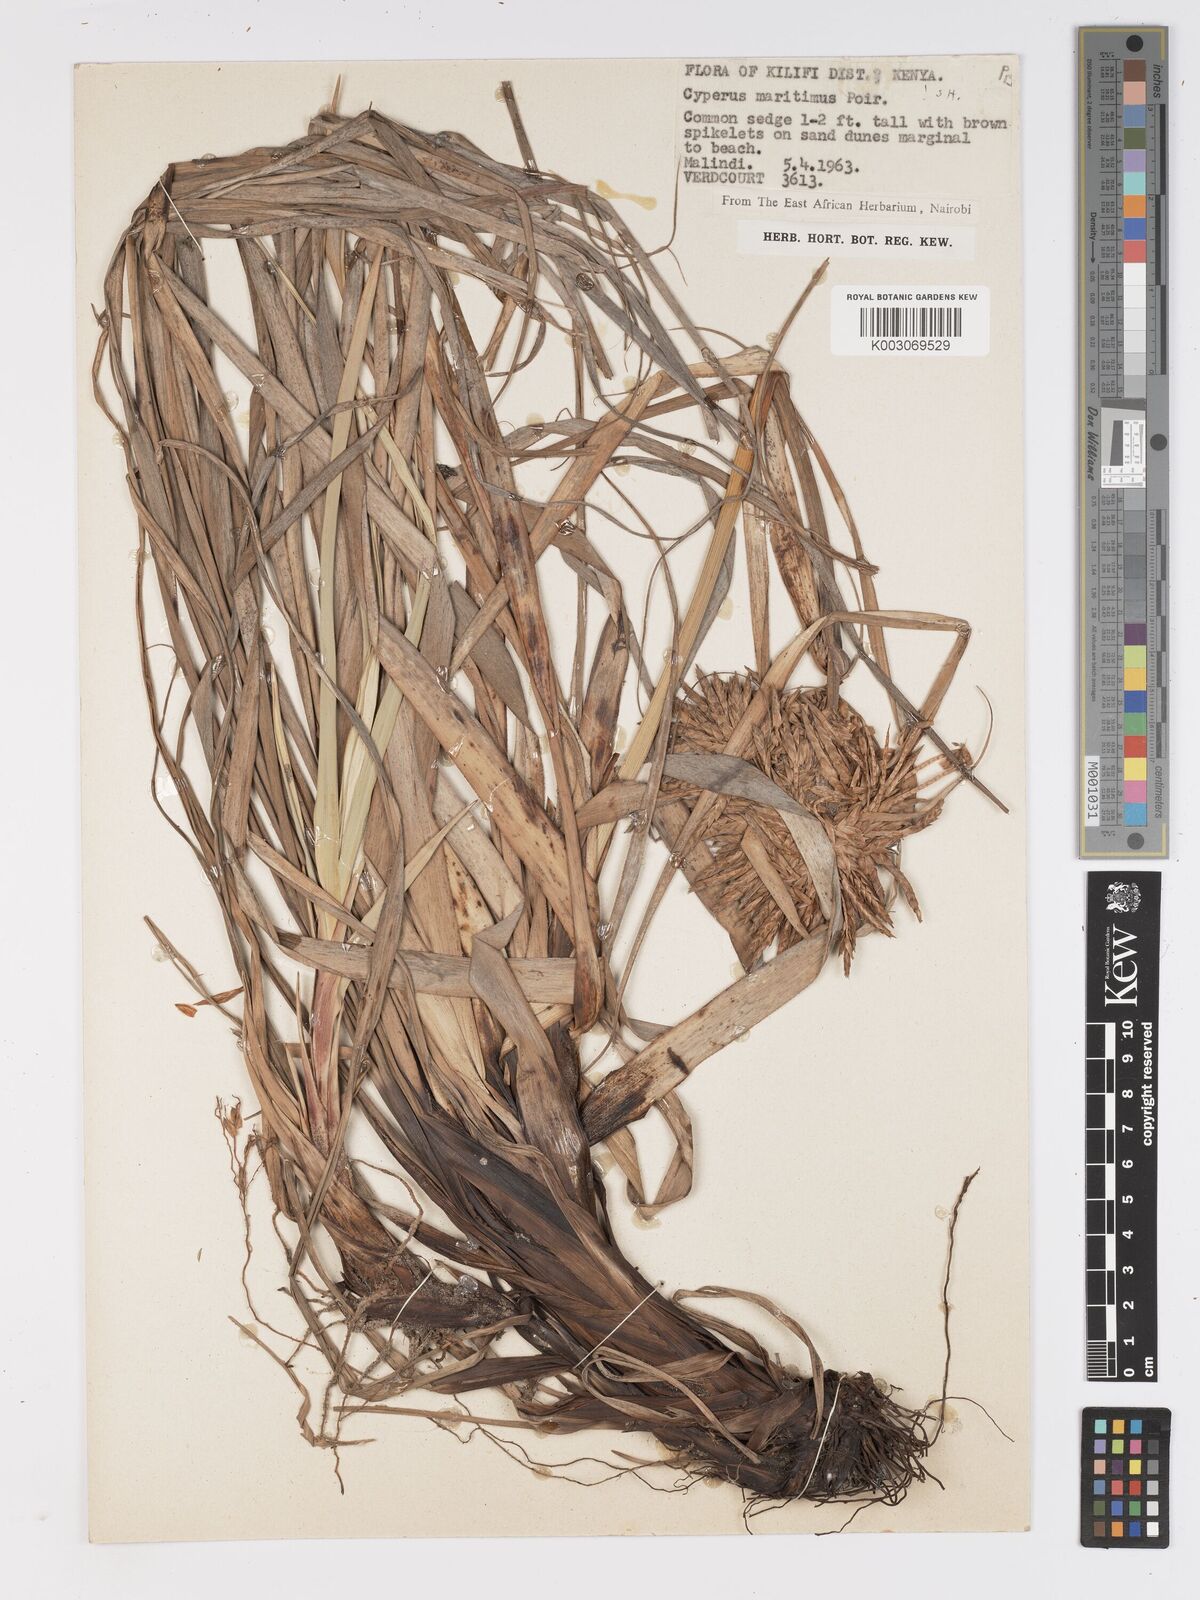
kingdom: Plantae
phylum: Tracheophyta
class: Liliopsida
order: Poales
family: Cyperaceae
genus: Cyperus
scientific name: Cyperus crassipes
